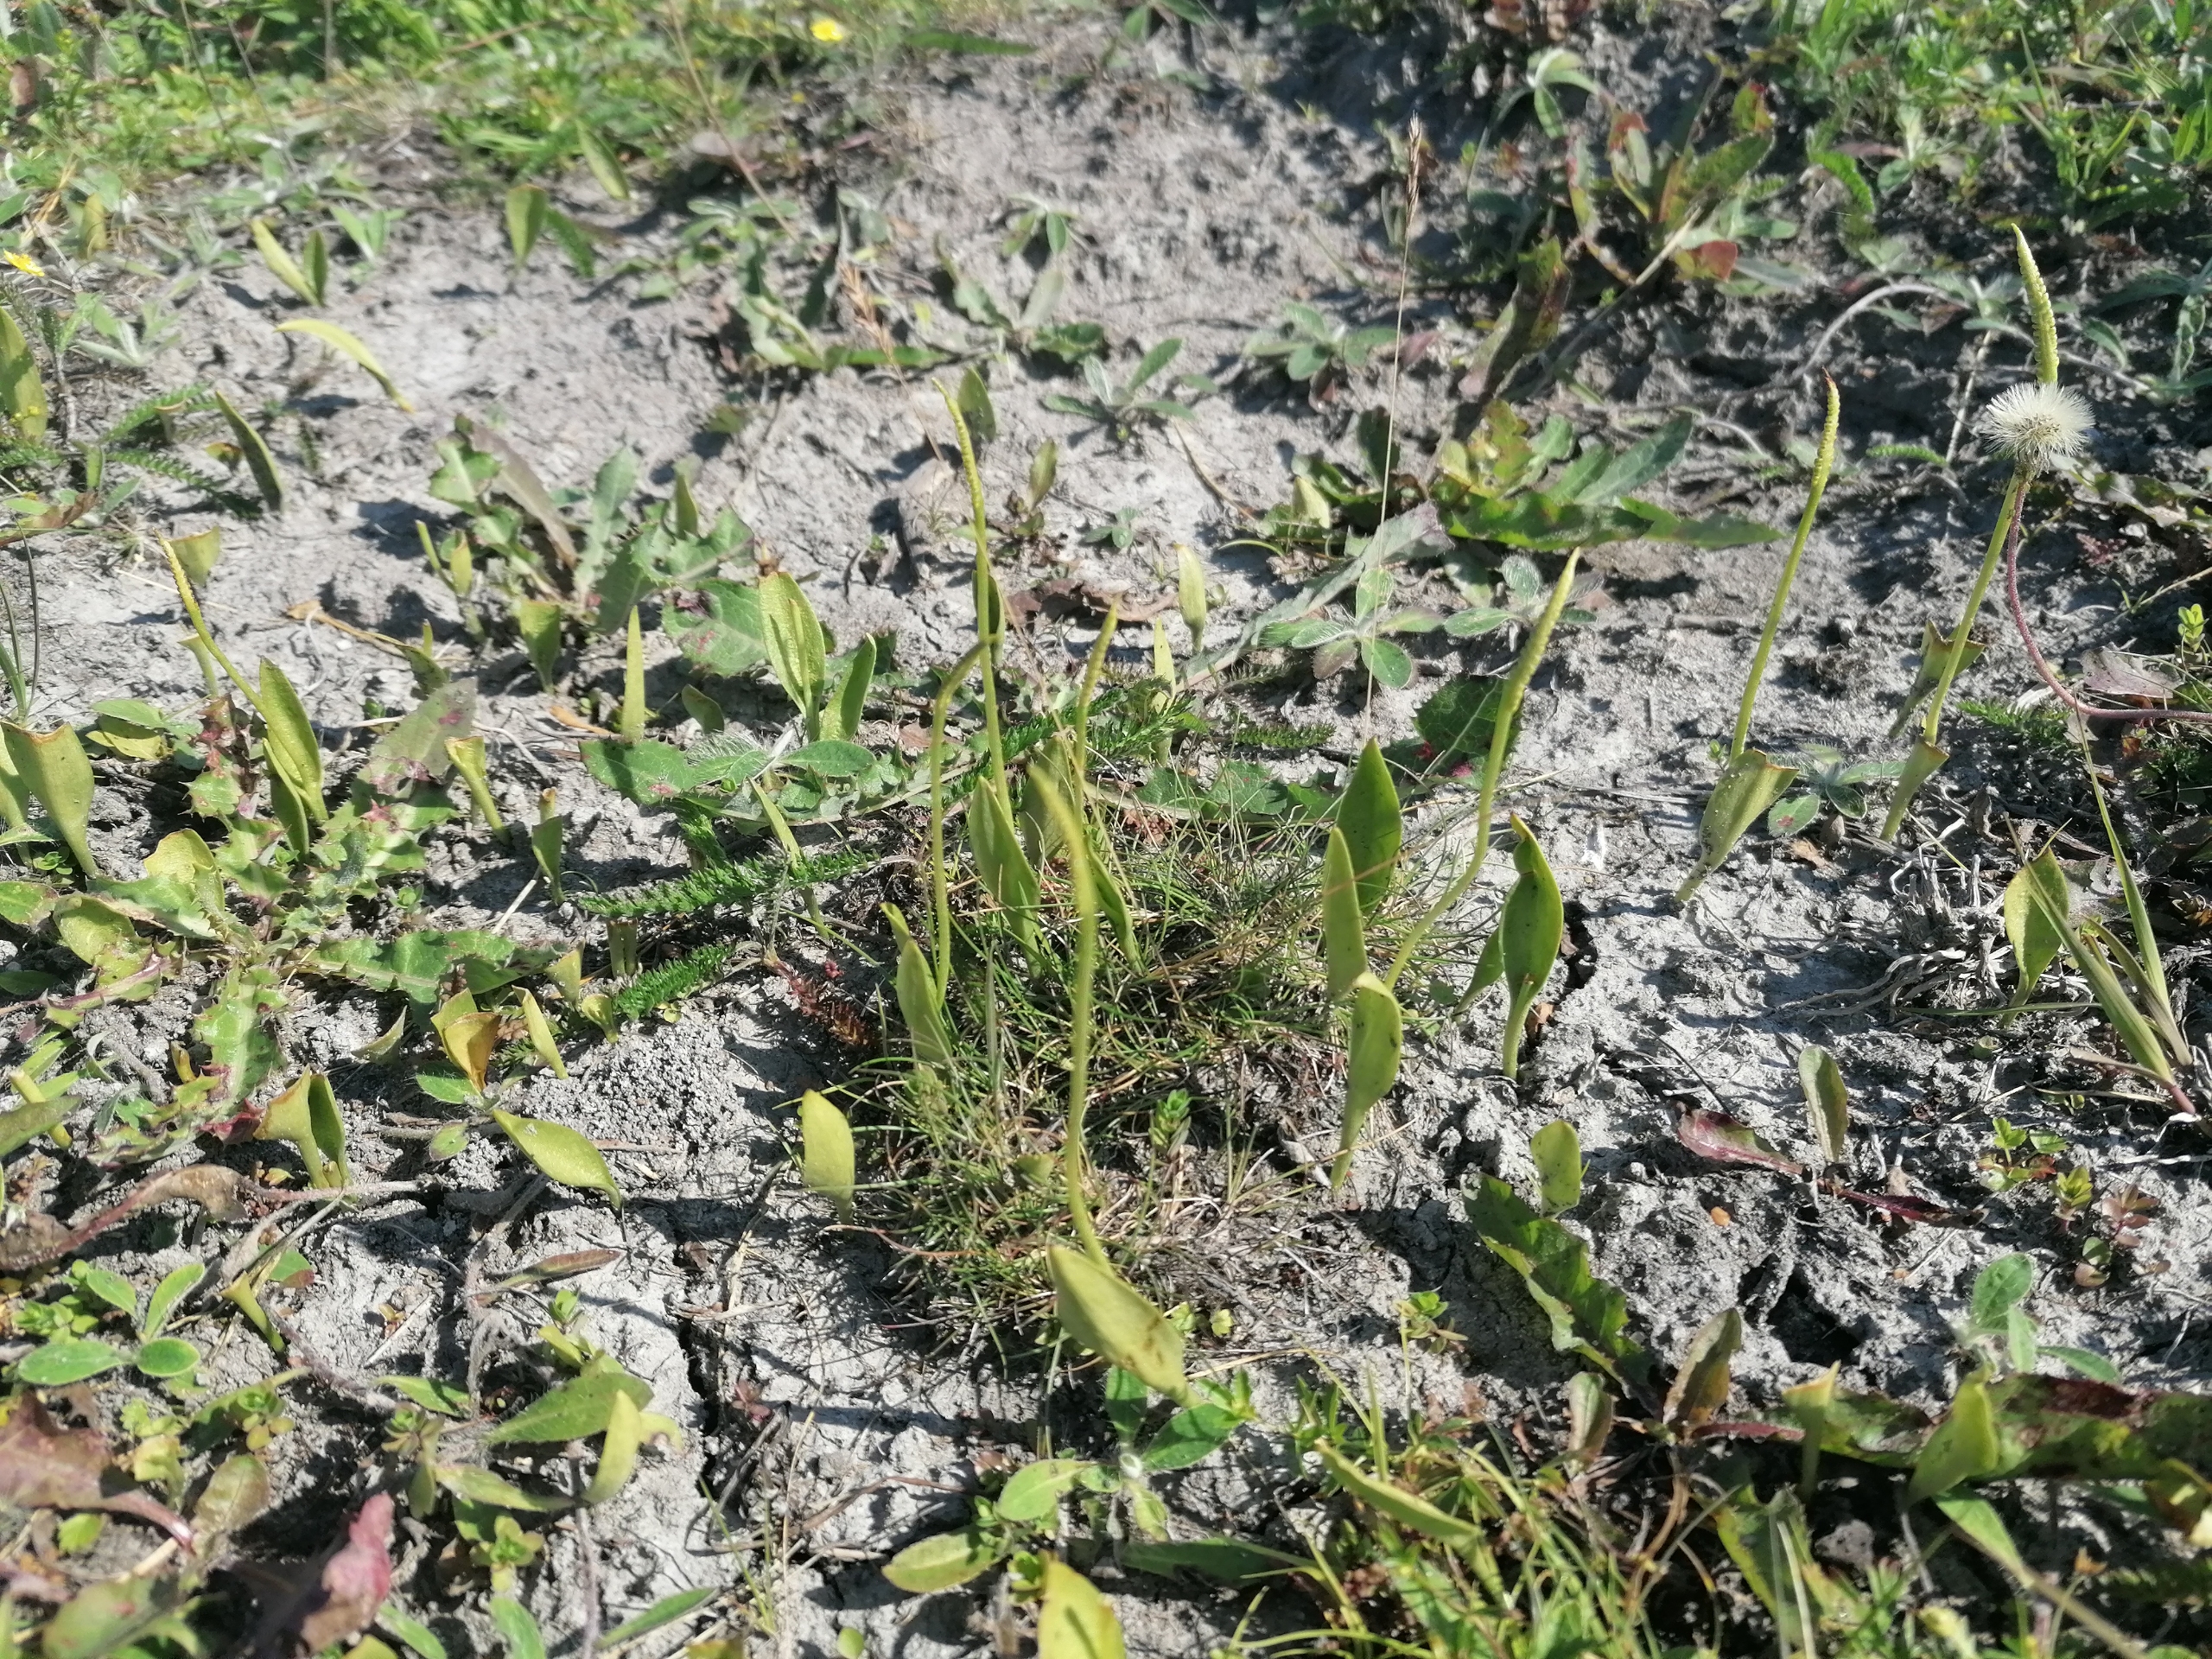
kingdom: Plantae
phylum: Tracheophyta
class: Polypodiopsida
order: Ophioglossales
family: Ophioglossaceae
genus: Ophioglossum
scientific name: Ophioglossum vulgatum
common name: Slangetunge
